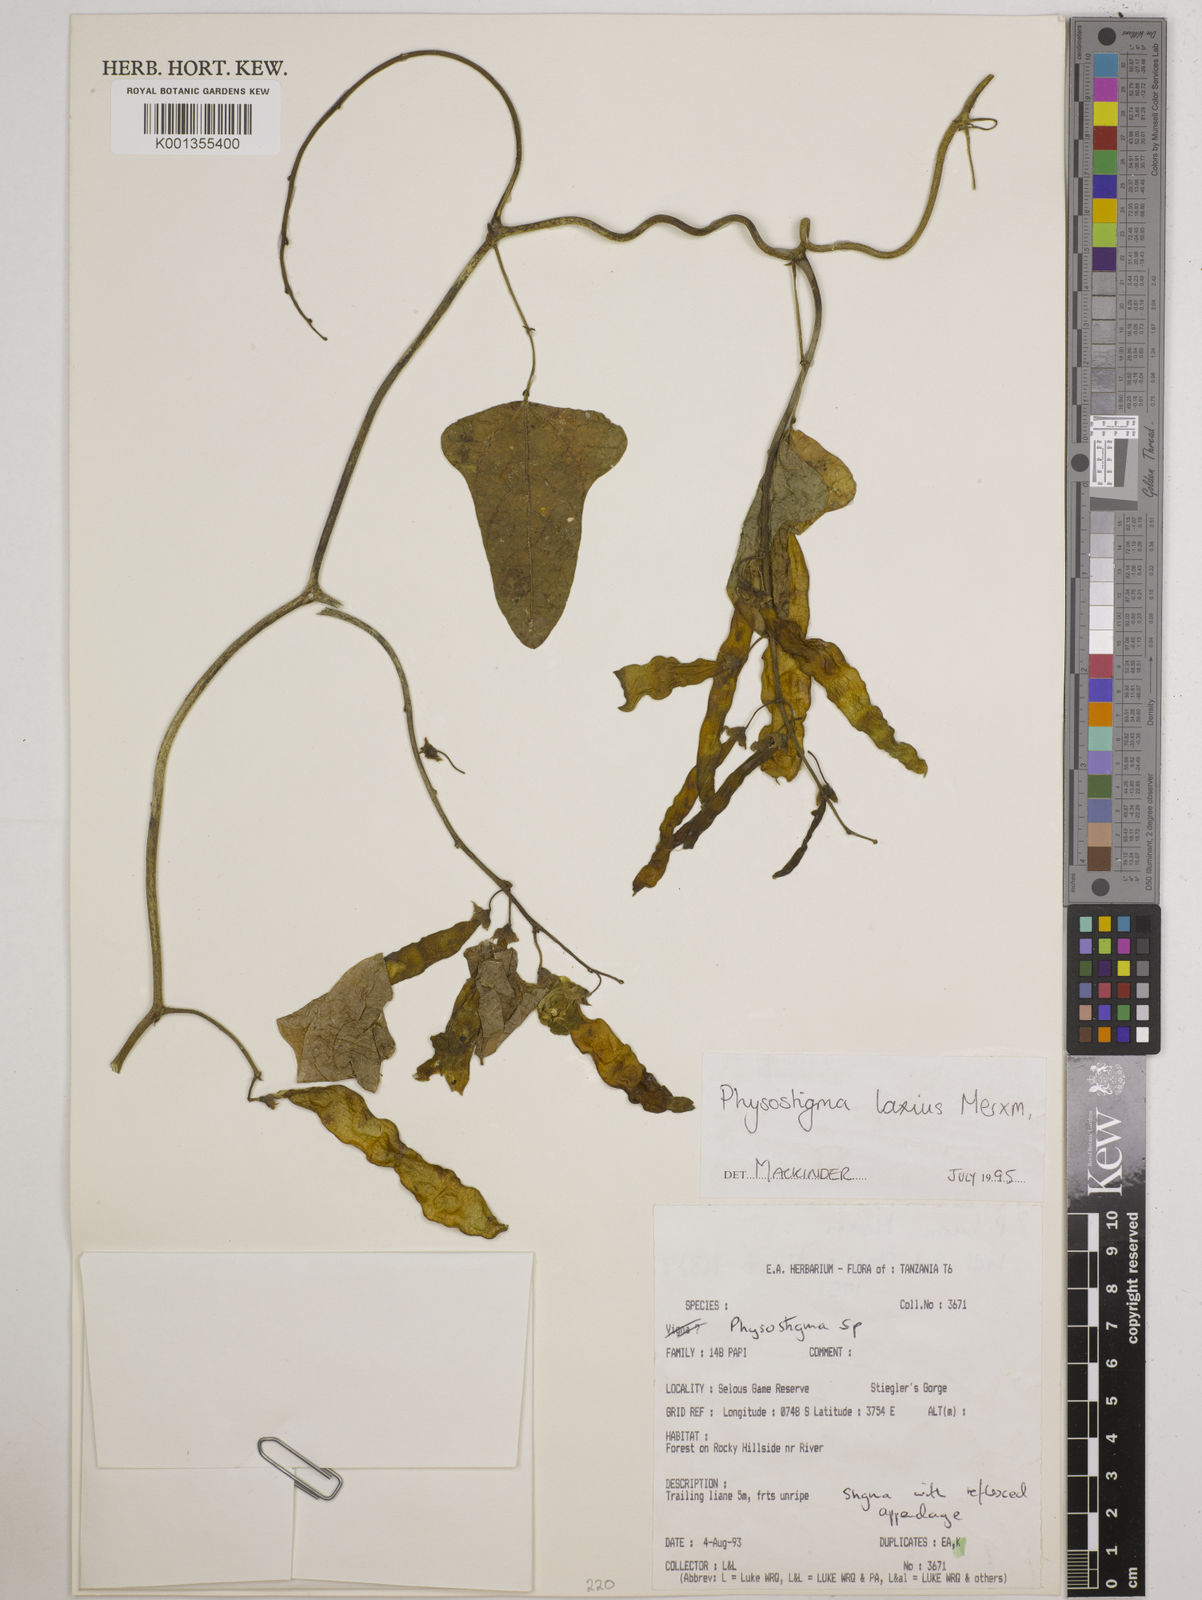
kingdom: Plantae
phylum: Tracheophyta
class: Magnoliopsida
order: Fabales
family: Fabaceae
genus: Physostigma
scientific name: Physostigma laxius
